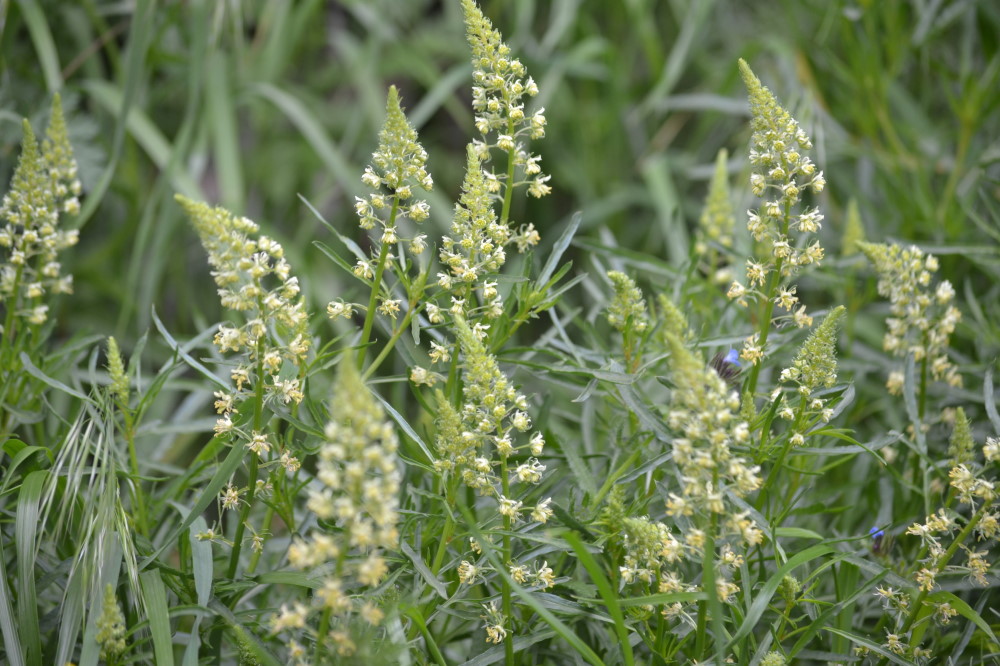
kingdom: Plantae
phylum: Tracheophyta
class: Liliopsida
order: Asparagales
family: Asparagaceae
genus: Ornithogalum
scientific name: Ornithogalum pyrenaicum
